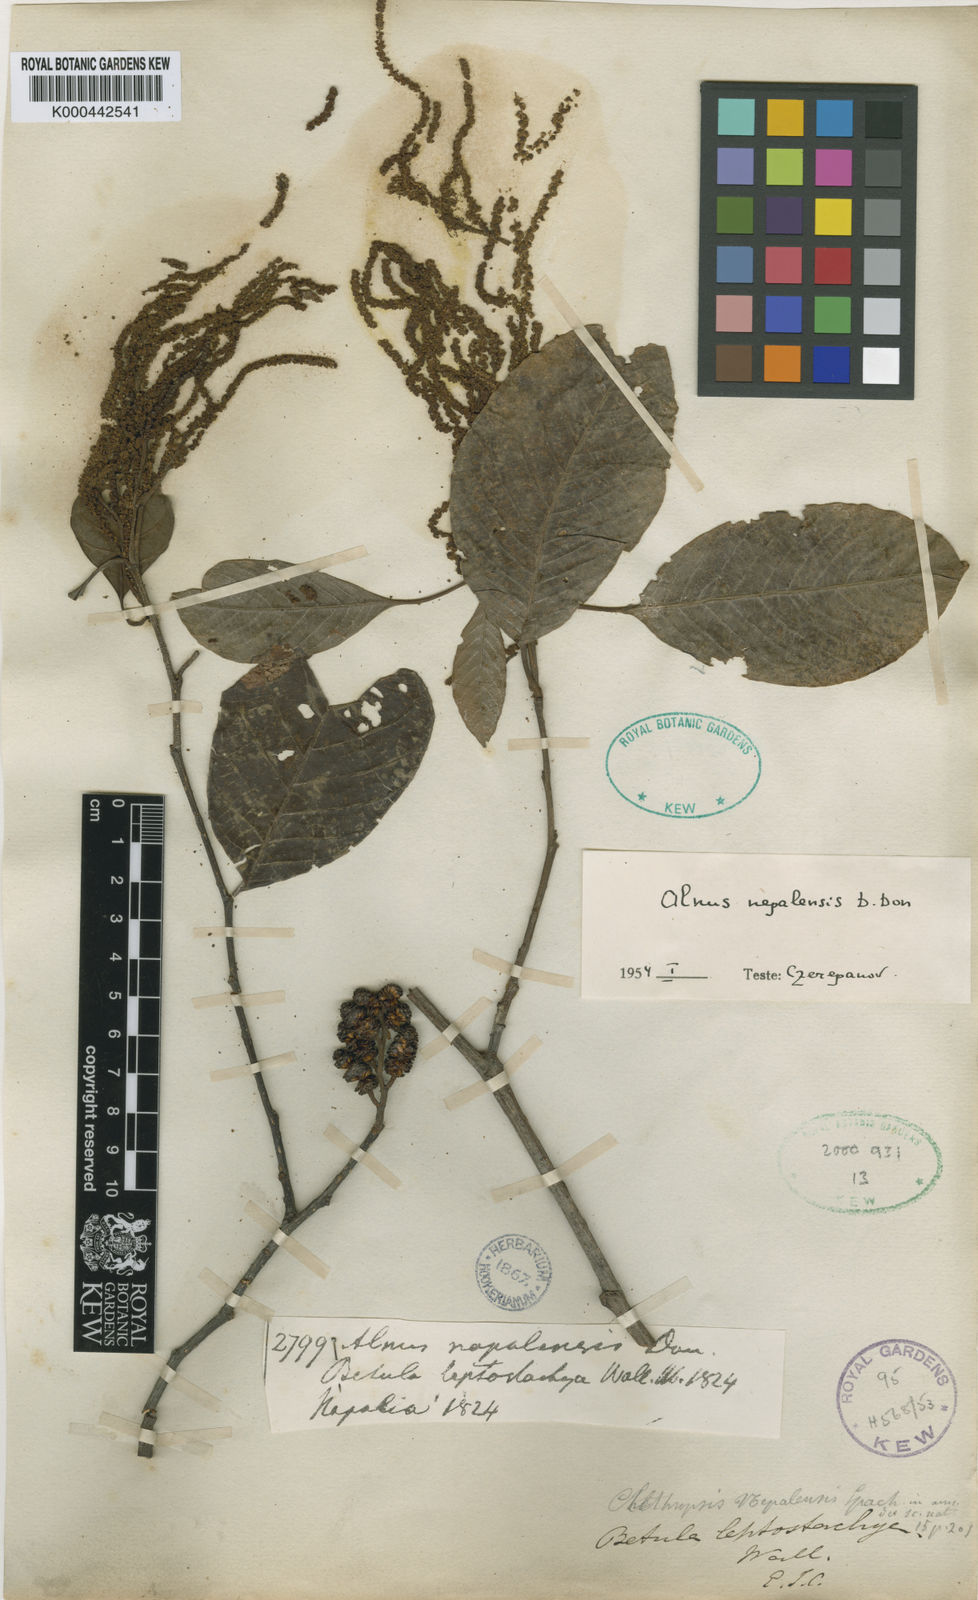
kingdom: Plantae
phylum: Tracheophyta
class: Magnoliopsida
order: Fagales
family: Betulaceae
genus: Alnus
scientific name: Alnus nepalensis
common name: Nepal alder
